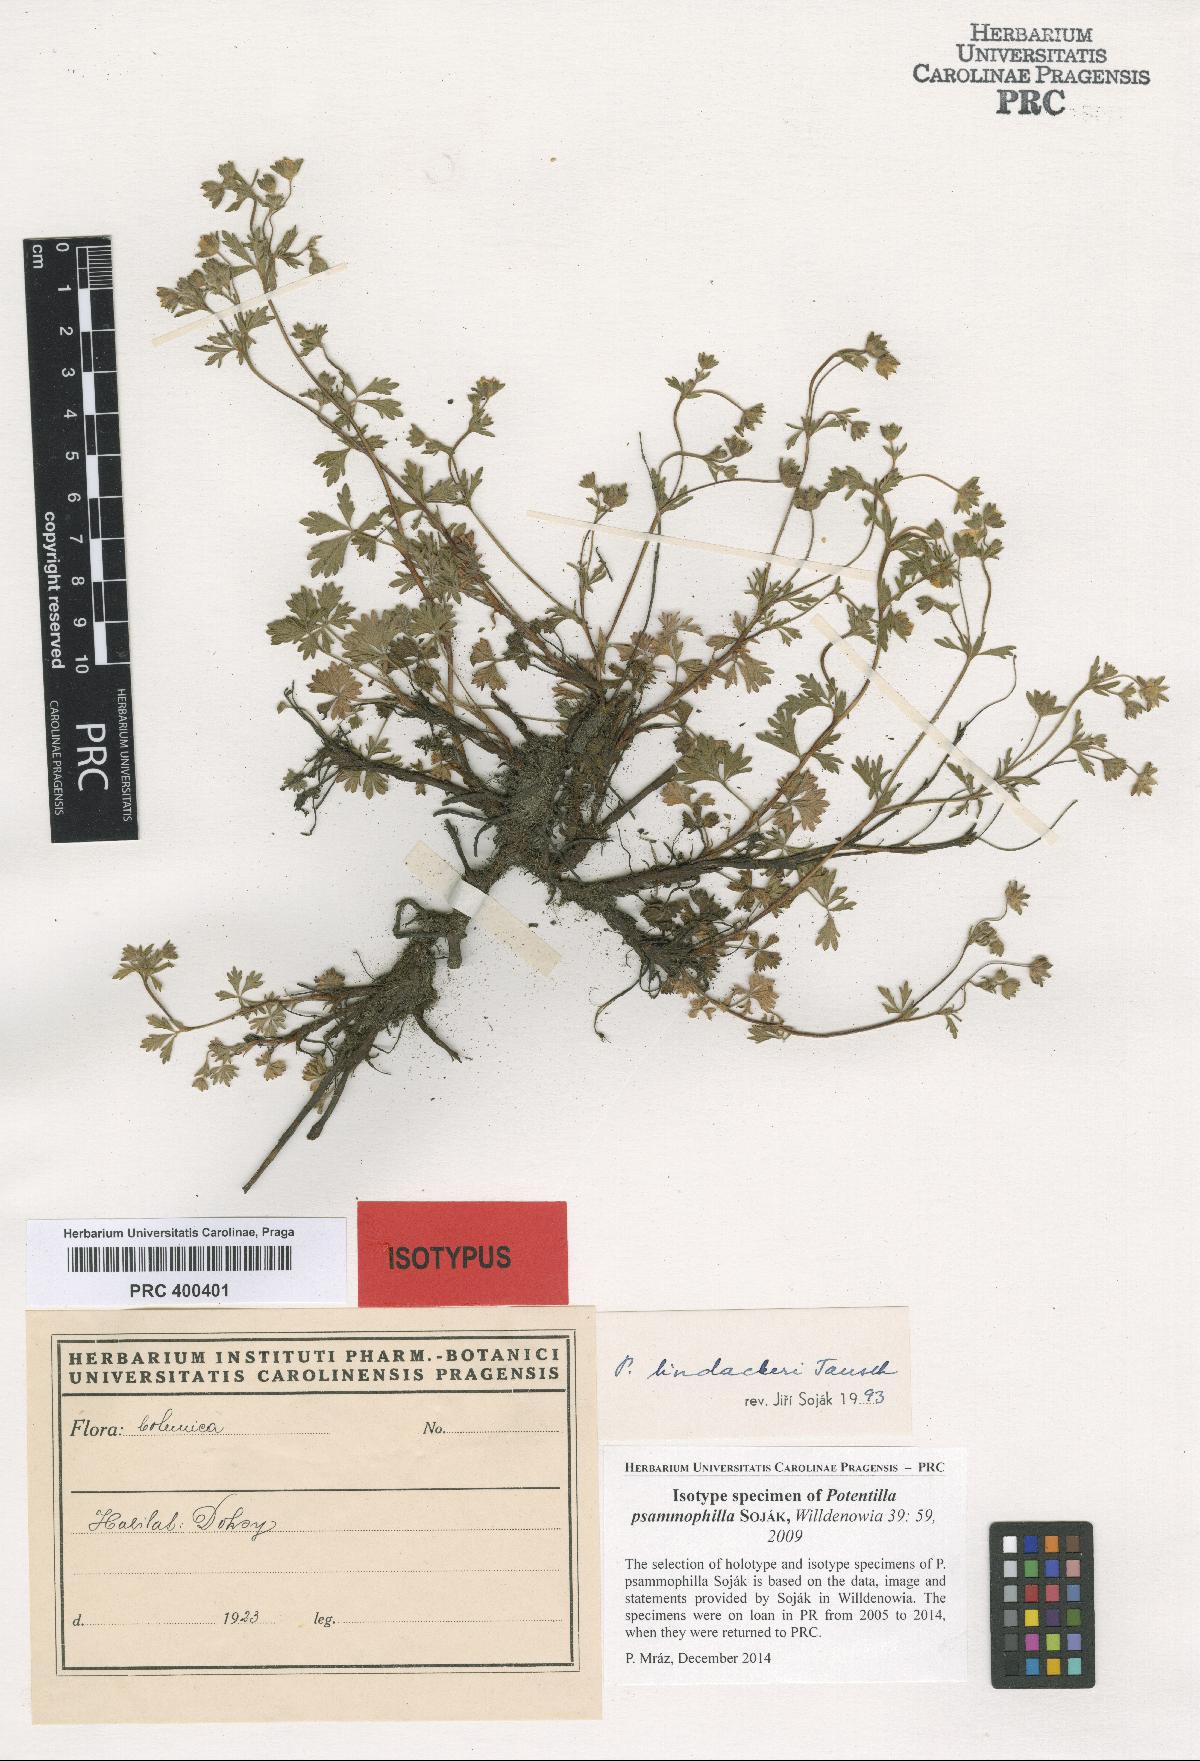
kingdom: Plantae
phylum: Tracheophyta
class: Magnoliopsida
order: Rosales
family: Rosaceae
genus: Potentilla
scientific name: Potentilla psammophila
